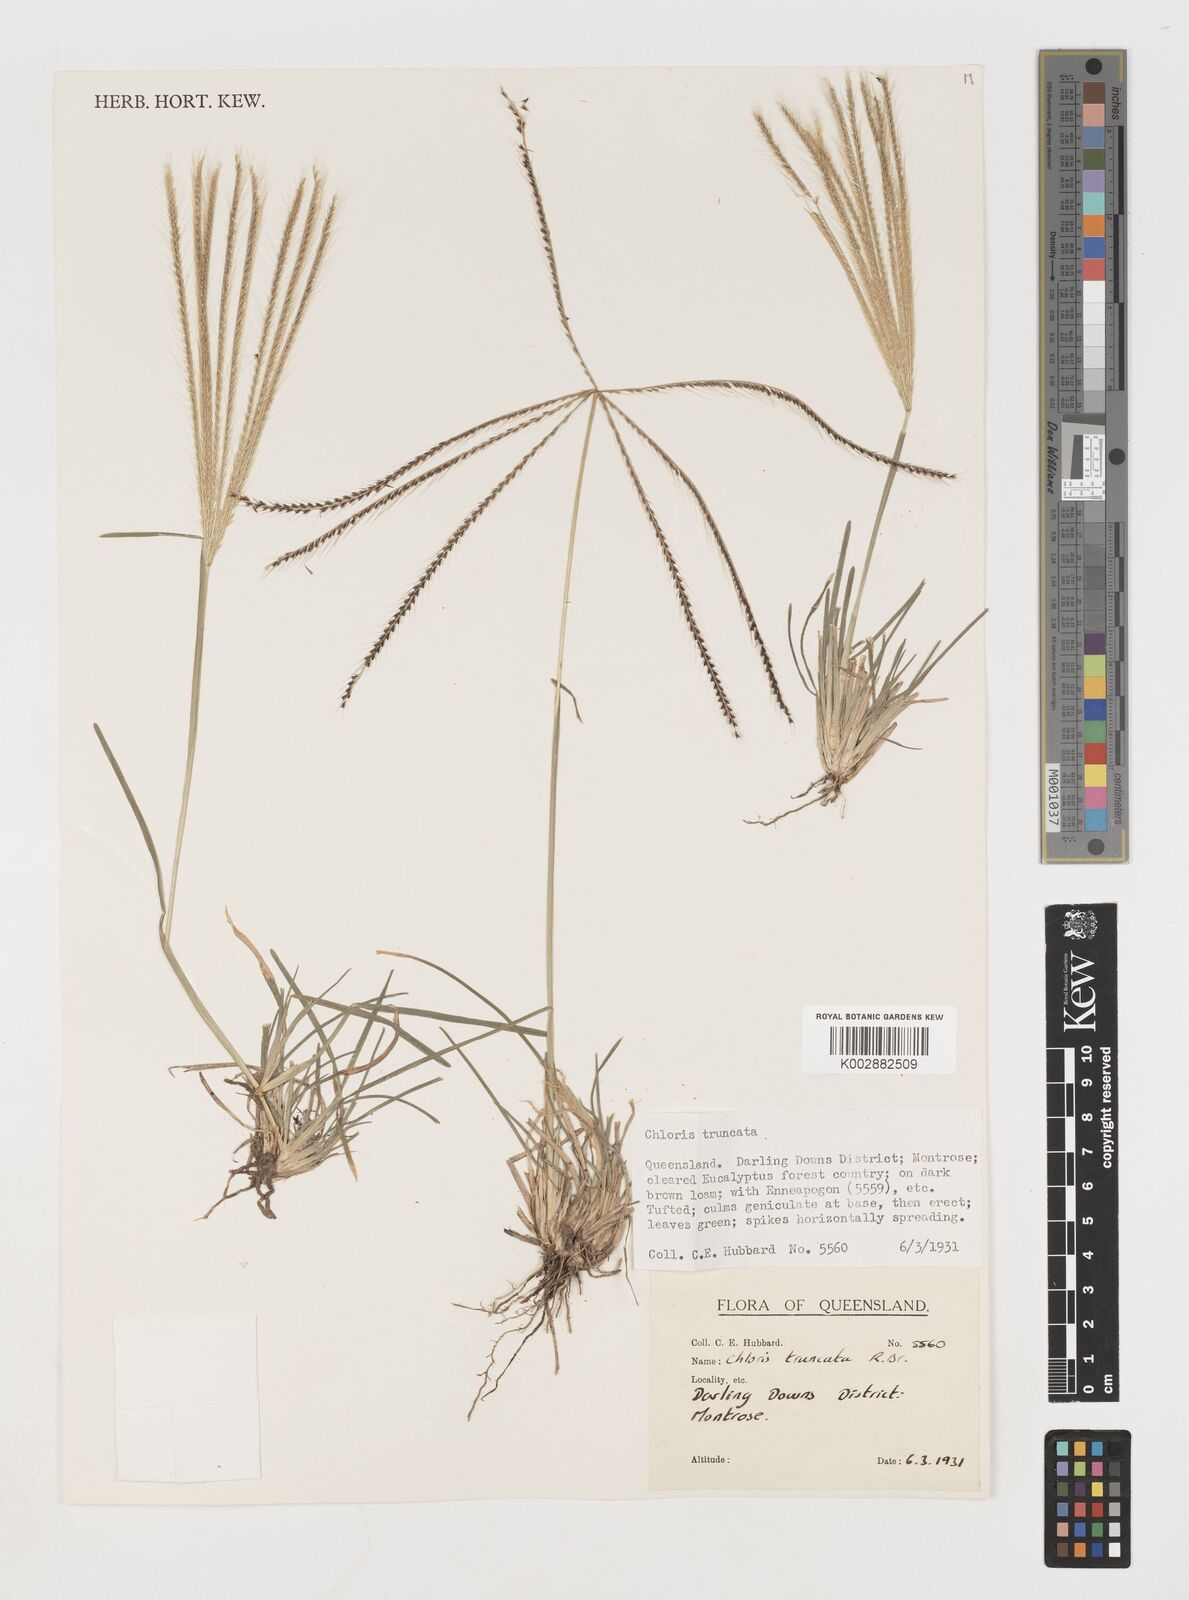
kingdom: Plantae
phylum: Tracheophyta
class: Liliopsida
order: Poales
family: Poaceae
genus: Chloris
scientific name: Chloris truncata
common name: Windmill-grass
